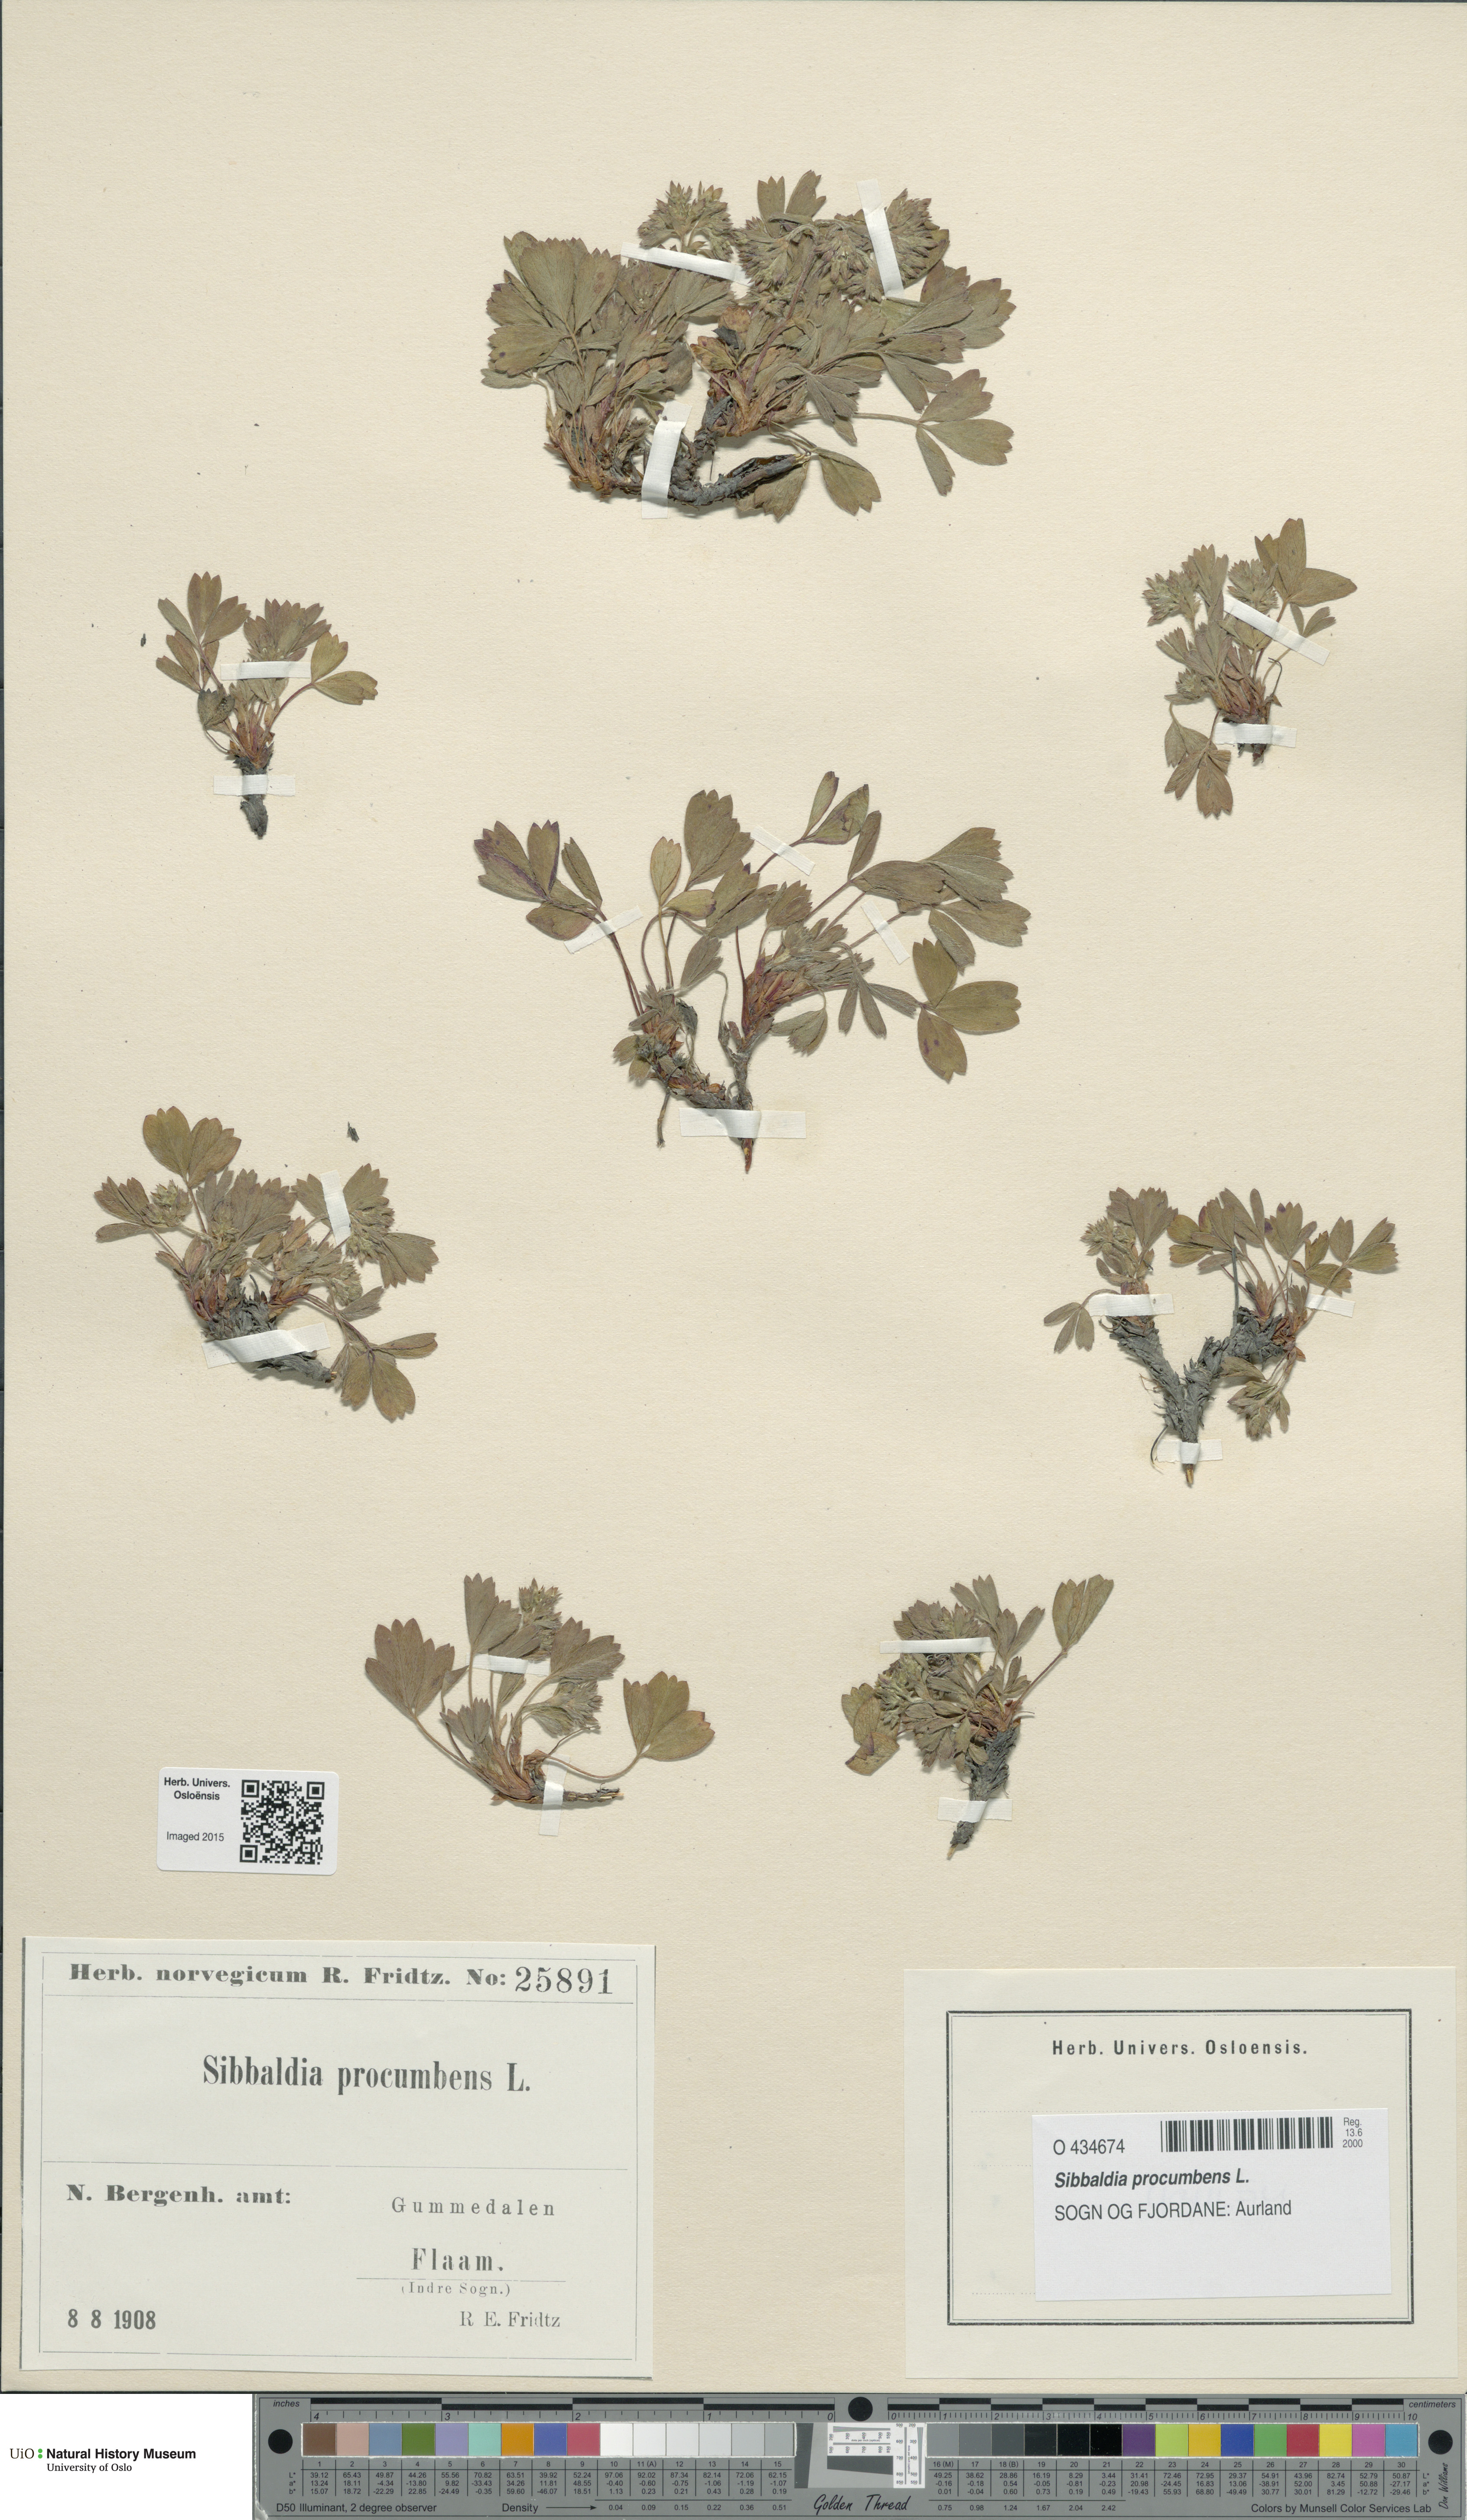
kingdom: Plantae
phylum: Tracheophyta
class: Magnoliopsida
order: Rosales
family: Rosaceae
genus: Sibbaldia
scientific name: Sibbaldia procumbens
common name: Creeping sibbaldia
